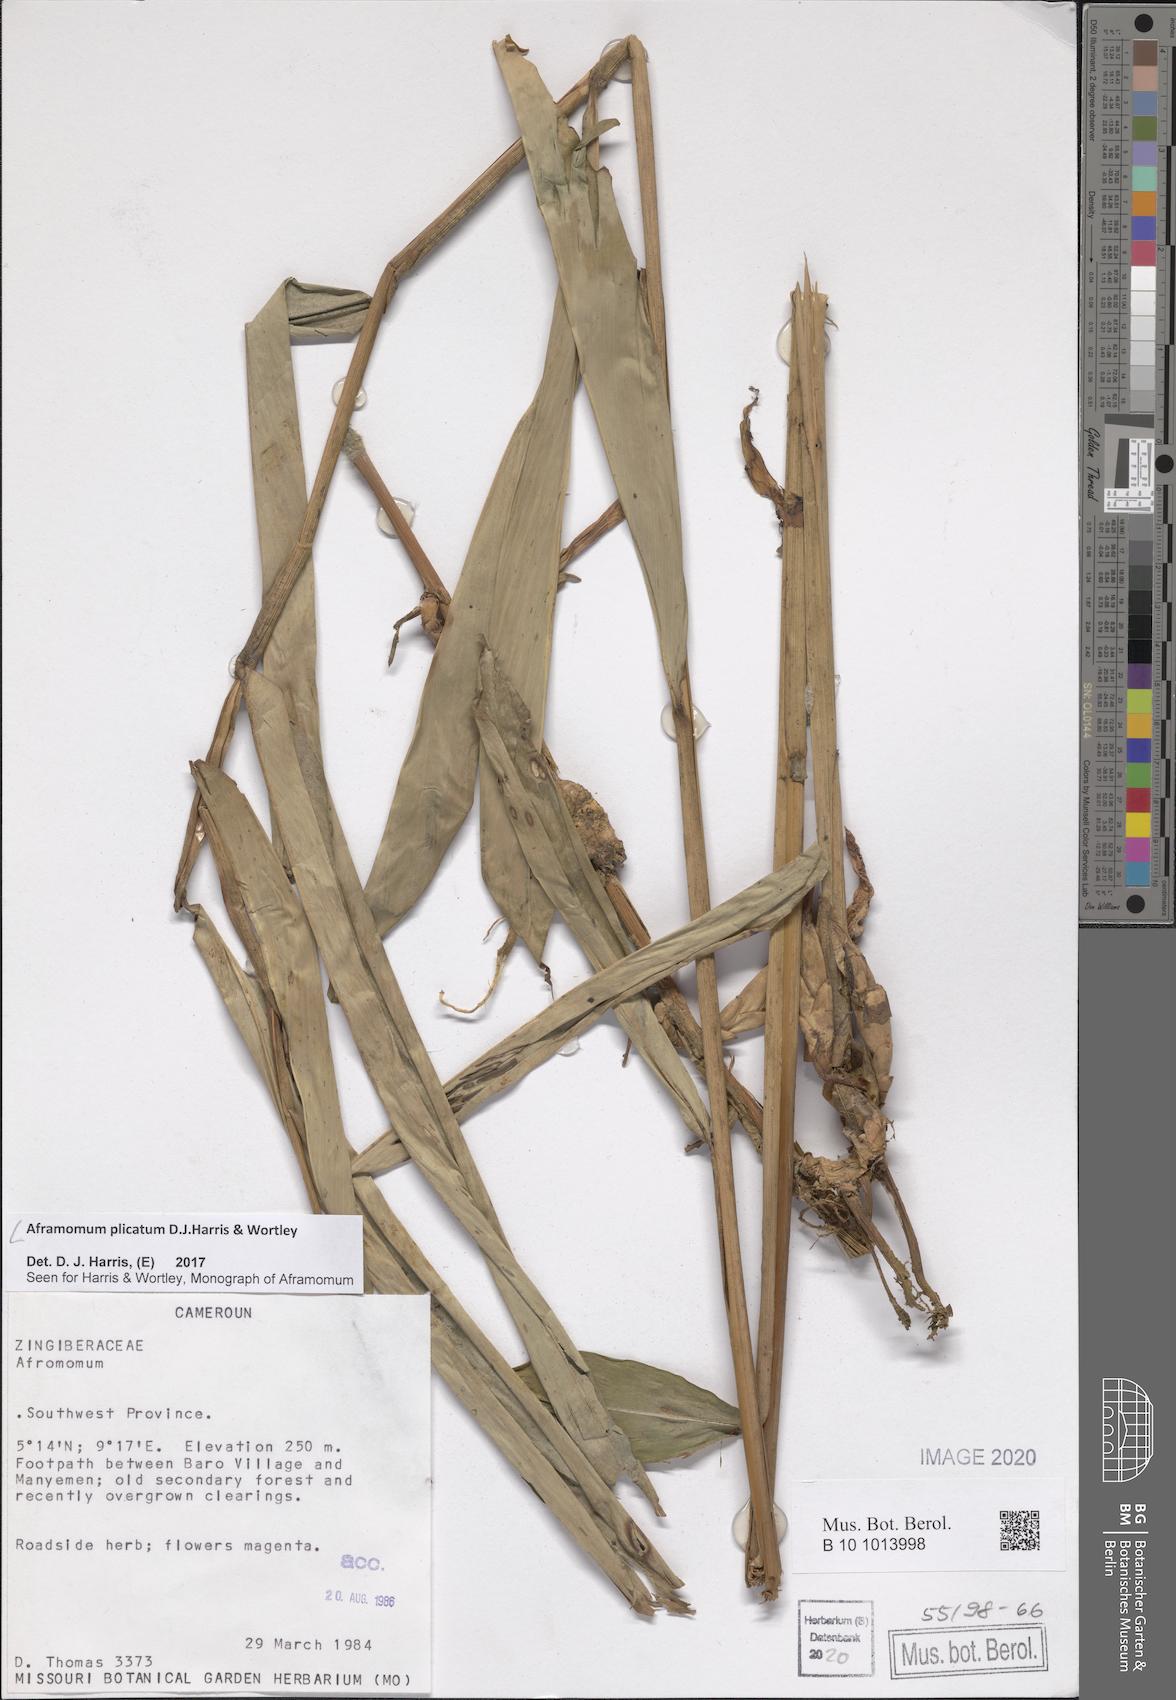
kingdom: Plantae
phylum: Tracheophyta
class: Liliopsida
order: Zingiberales
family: Zingiberaceae
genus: Aframomum
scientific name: Aframomum plicatum
